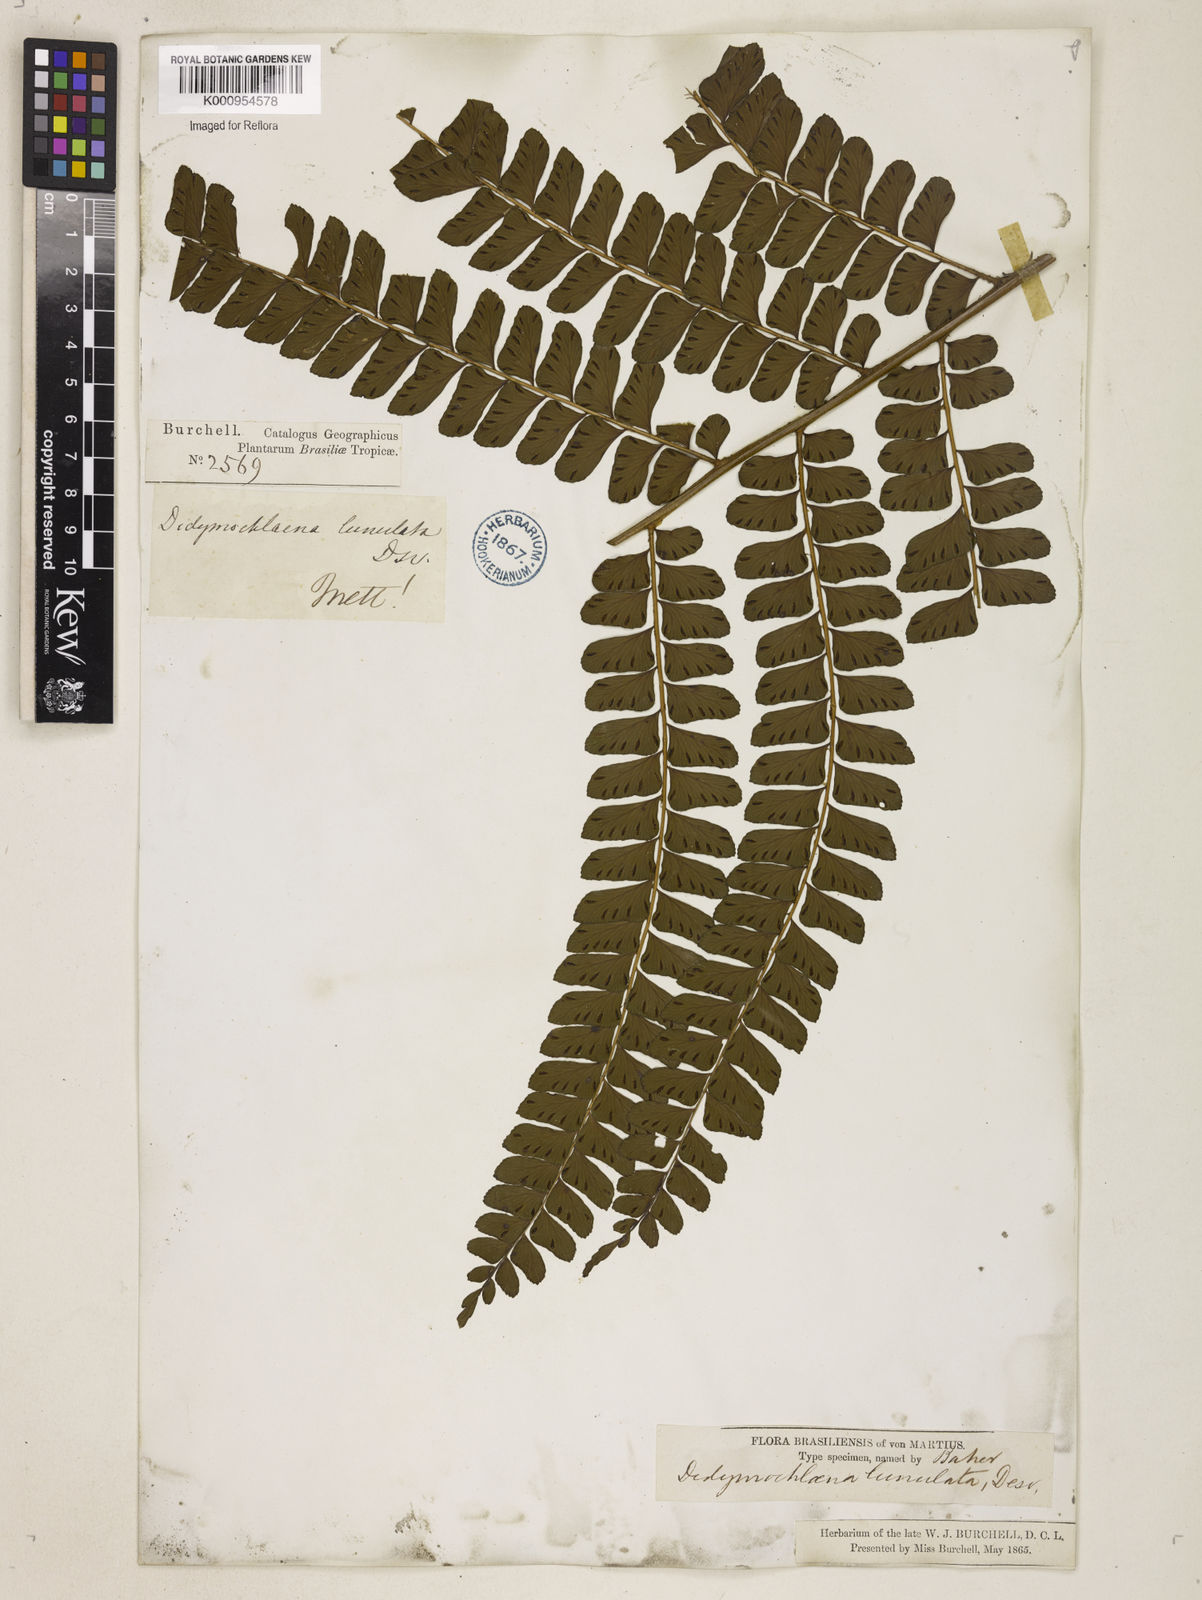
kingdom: Plantae
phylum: Tracheophyta
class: Polypodiopsida
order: Polypodiales
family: Didymochlaenaceae
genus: Didymochlaena
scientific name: Didymochlaena truncatula
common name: Mahogany fern
